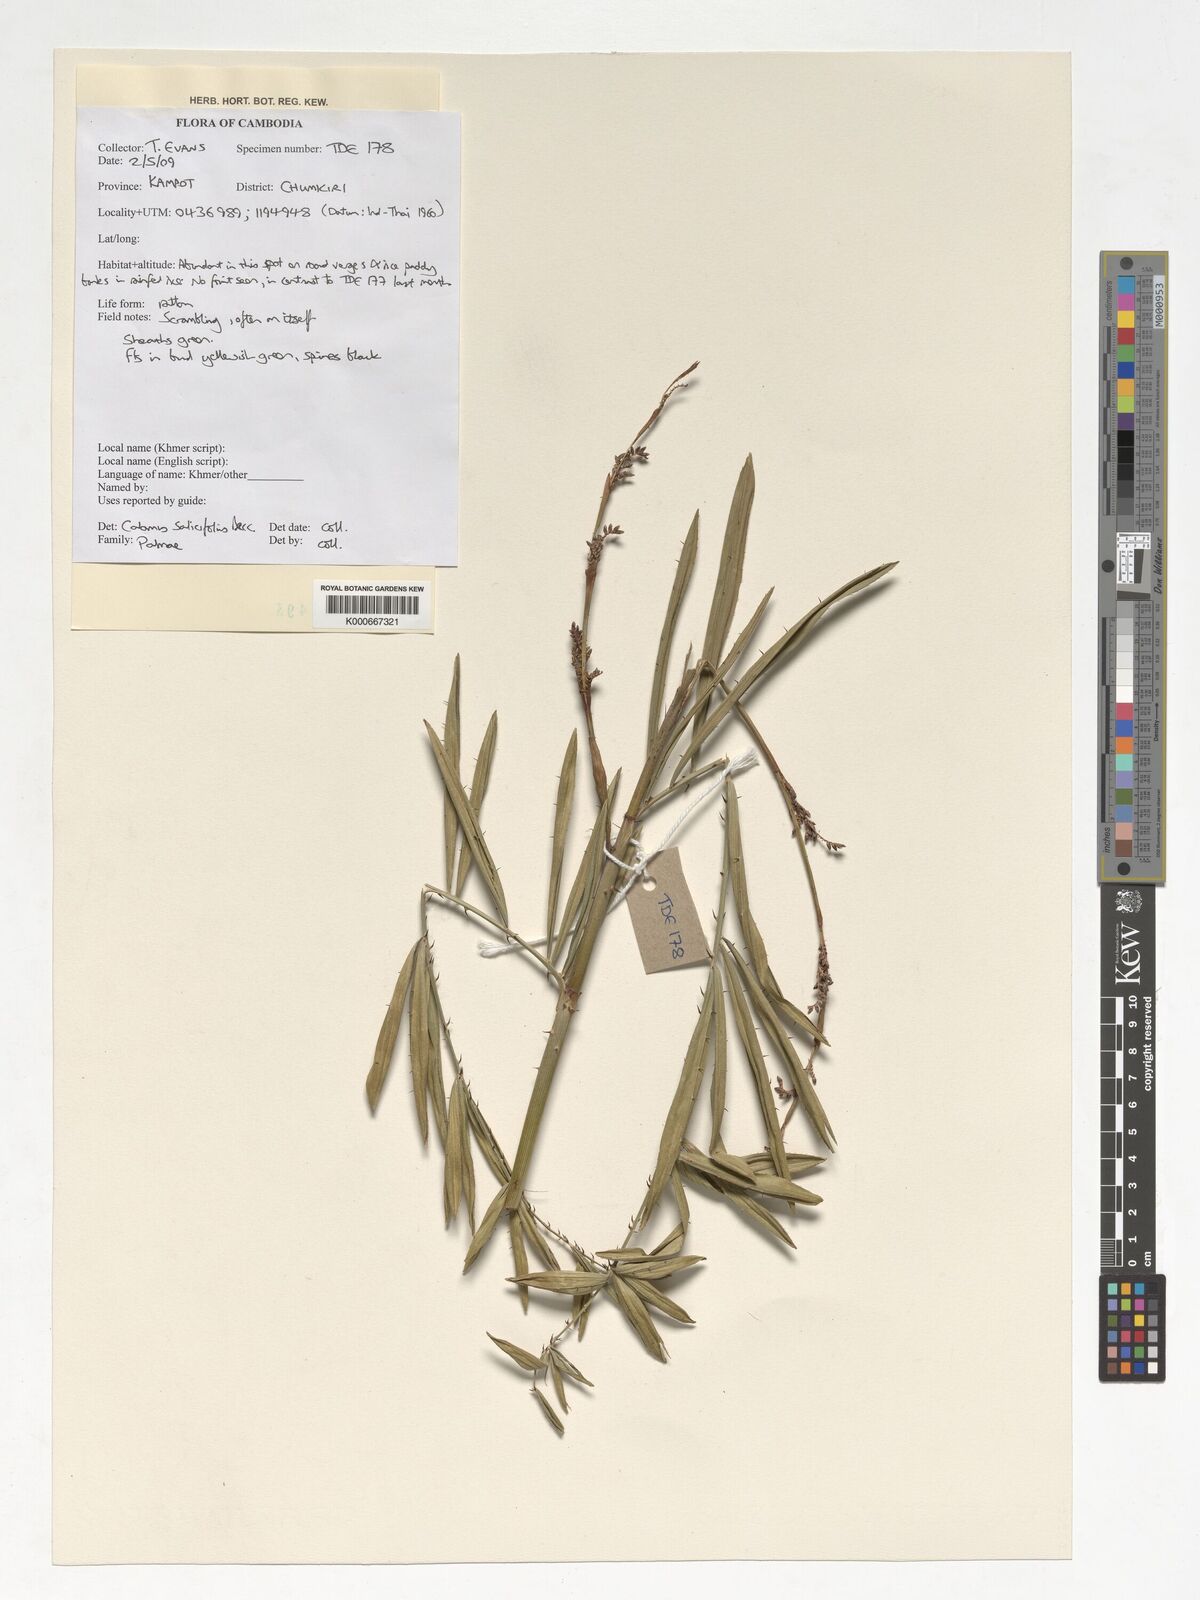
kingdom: Plantae
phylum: Tracheophyta
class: Liliopsida
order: Arecales
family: Arecaceae
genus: Calamus
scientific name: Calamus salicifolius
